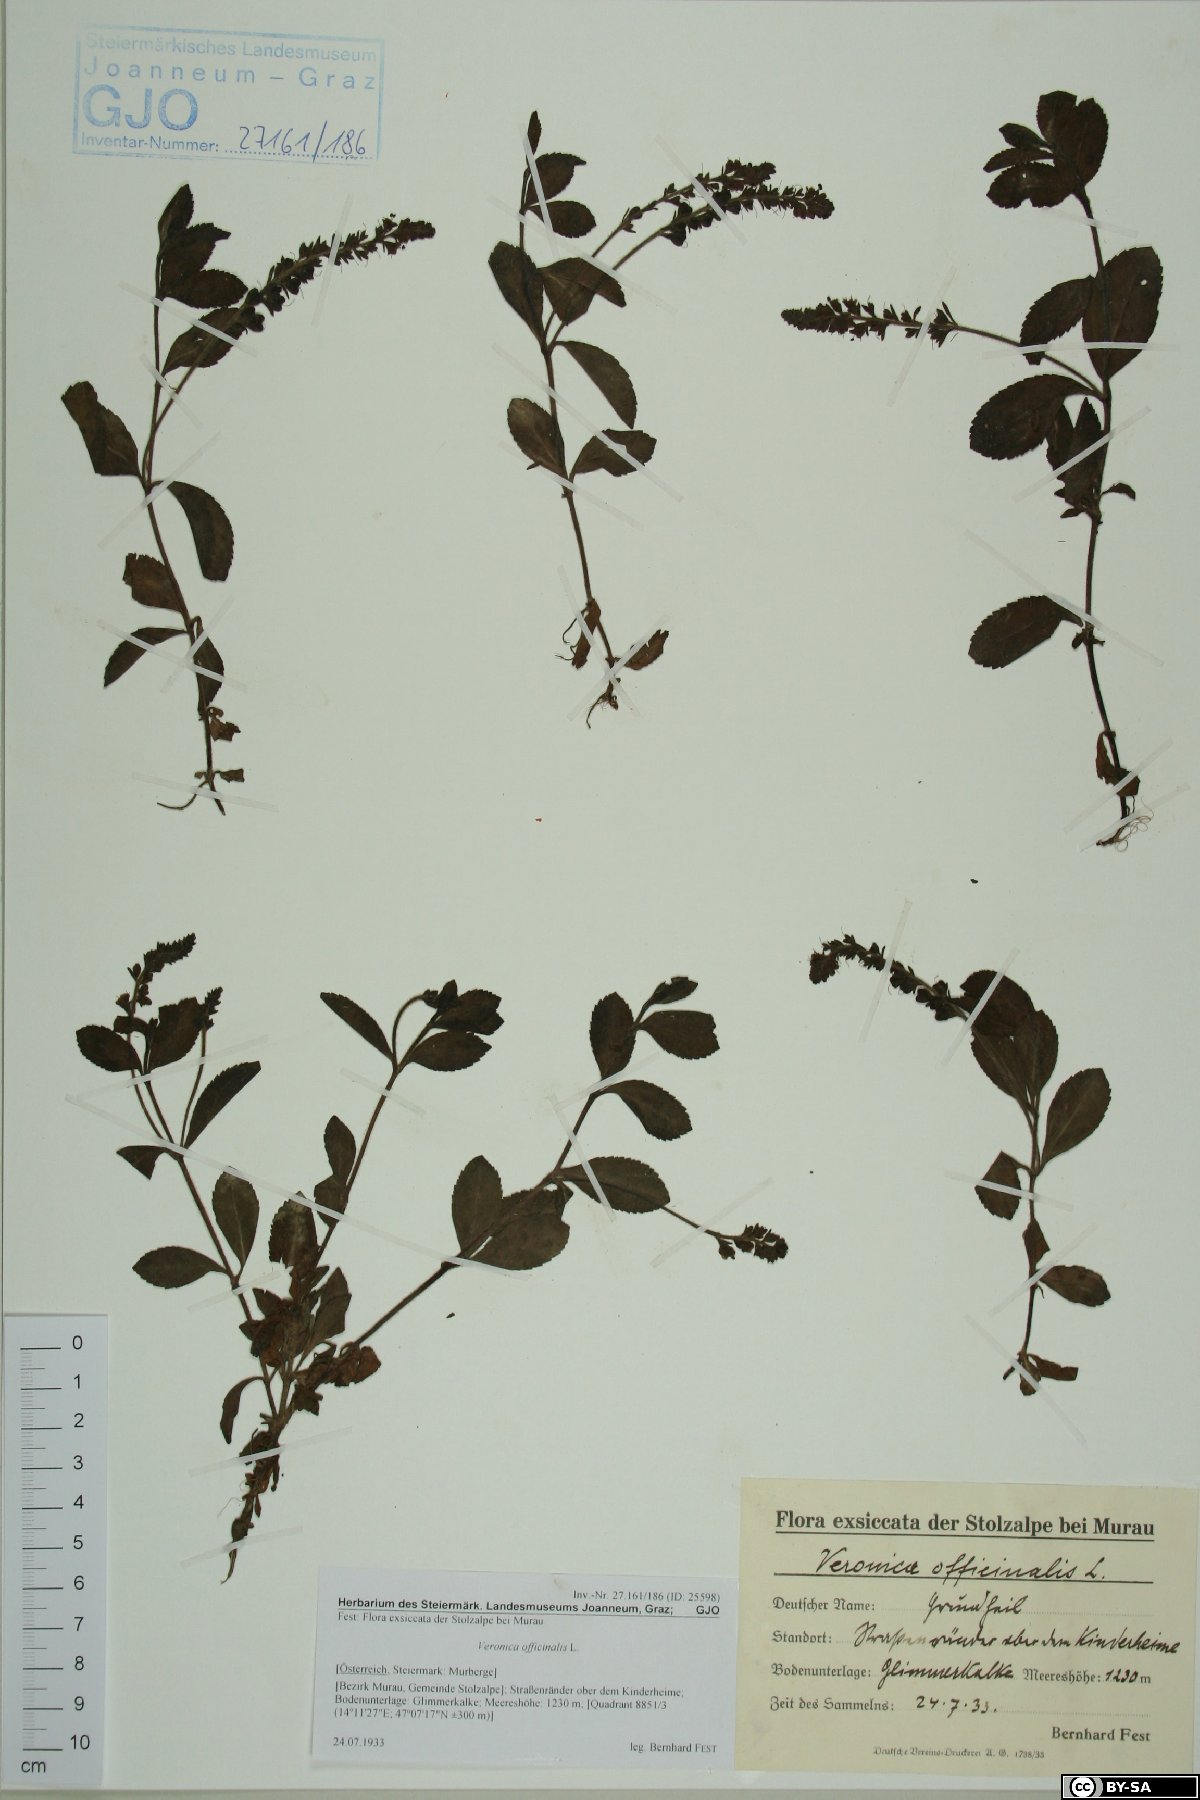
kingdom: Plantae
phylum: Tracheophyta
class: Magnoliopsida
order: Lamiales
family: Plantaginaceae
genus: Veronica
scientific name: Veronica officinalis
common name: Common speedwell
